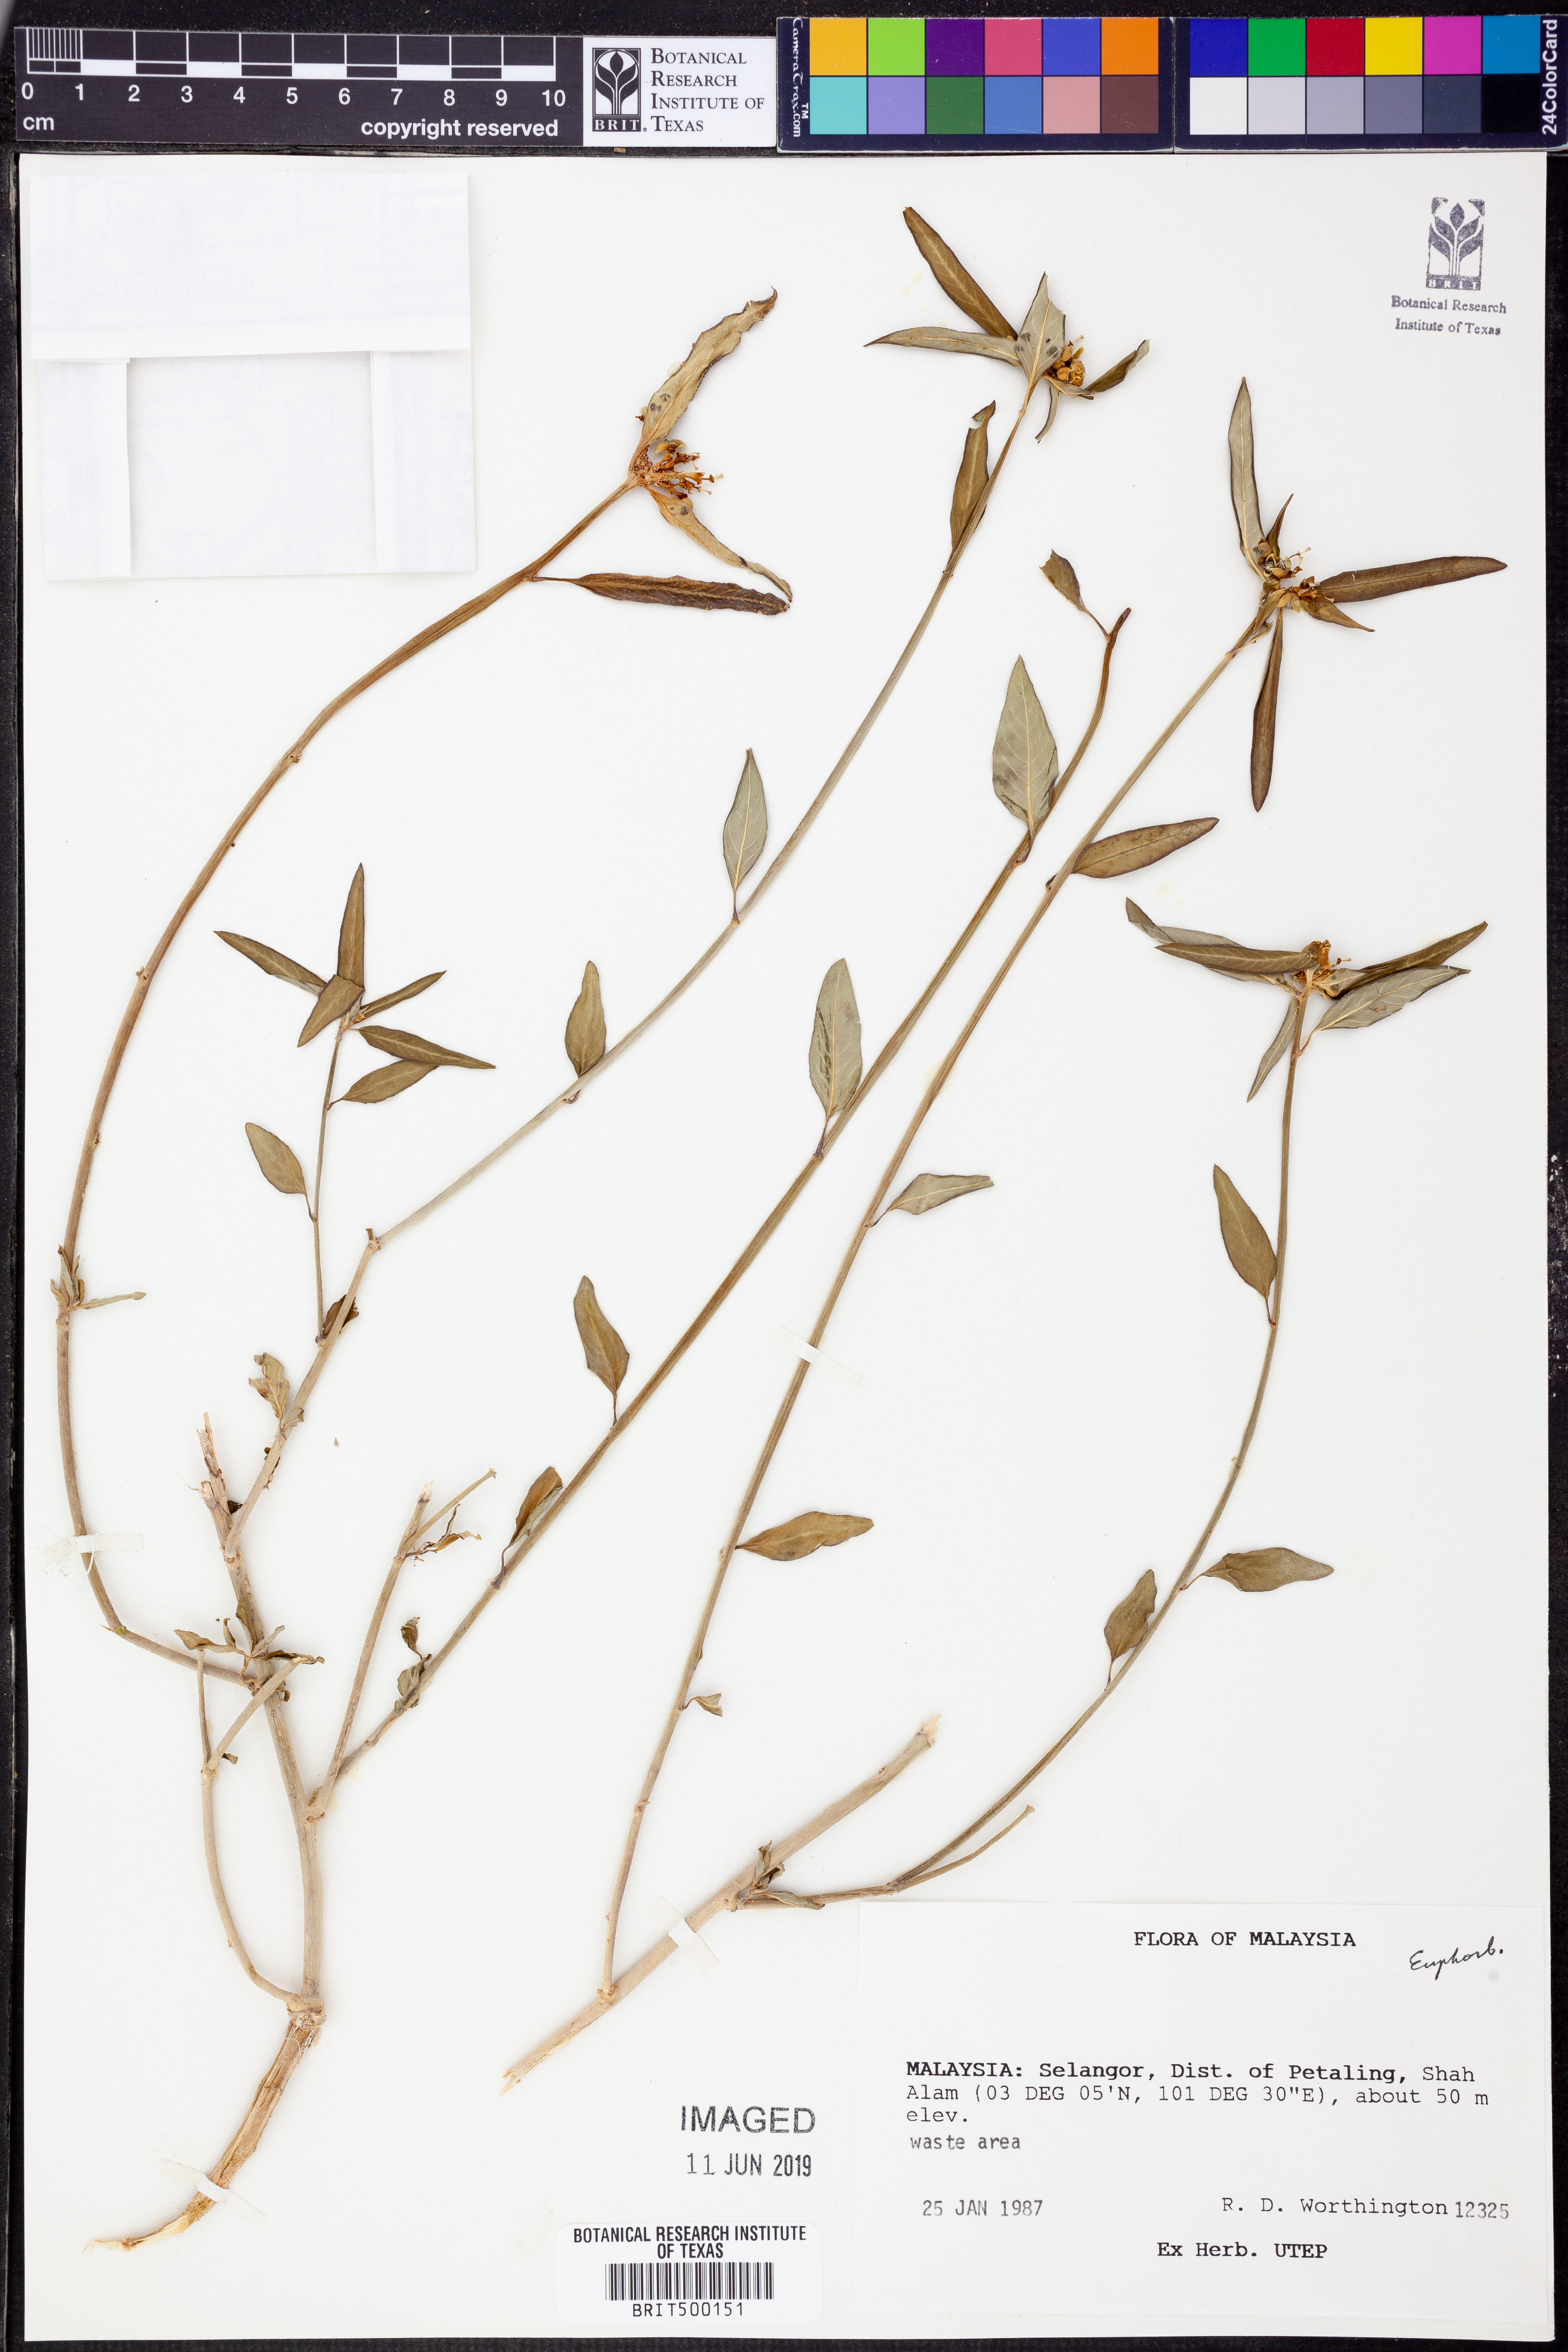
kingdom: Plantae
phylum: Tracheophyta
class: Magnoliopsida
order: Malpighiales
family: Euphorbiaceae
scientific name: Euphorbiaceae
